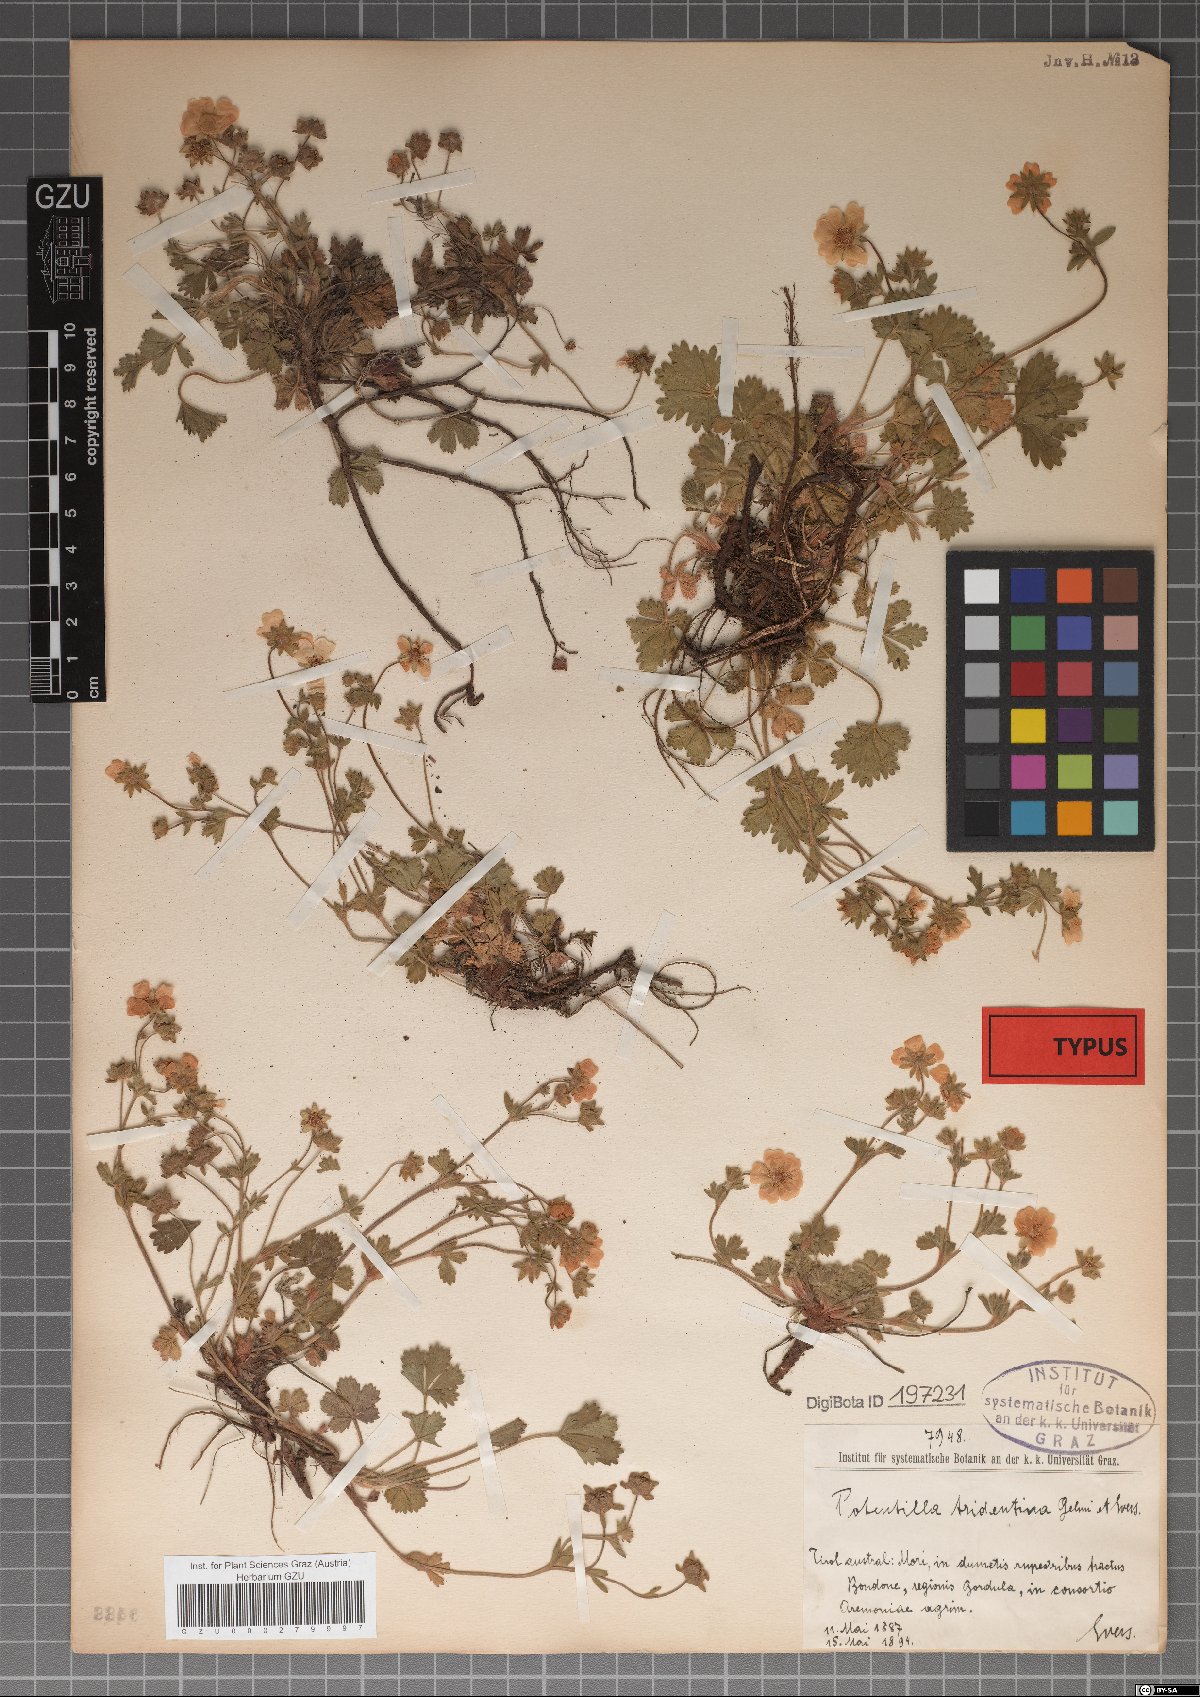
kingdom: Plantae
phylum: Tracheophyta
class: Magnoliopsida
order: Rosales
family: Rosaceae
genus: Potentilla
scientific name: Potentilla crantzii
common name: Alpine cinquefoil
